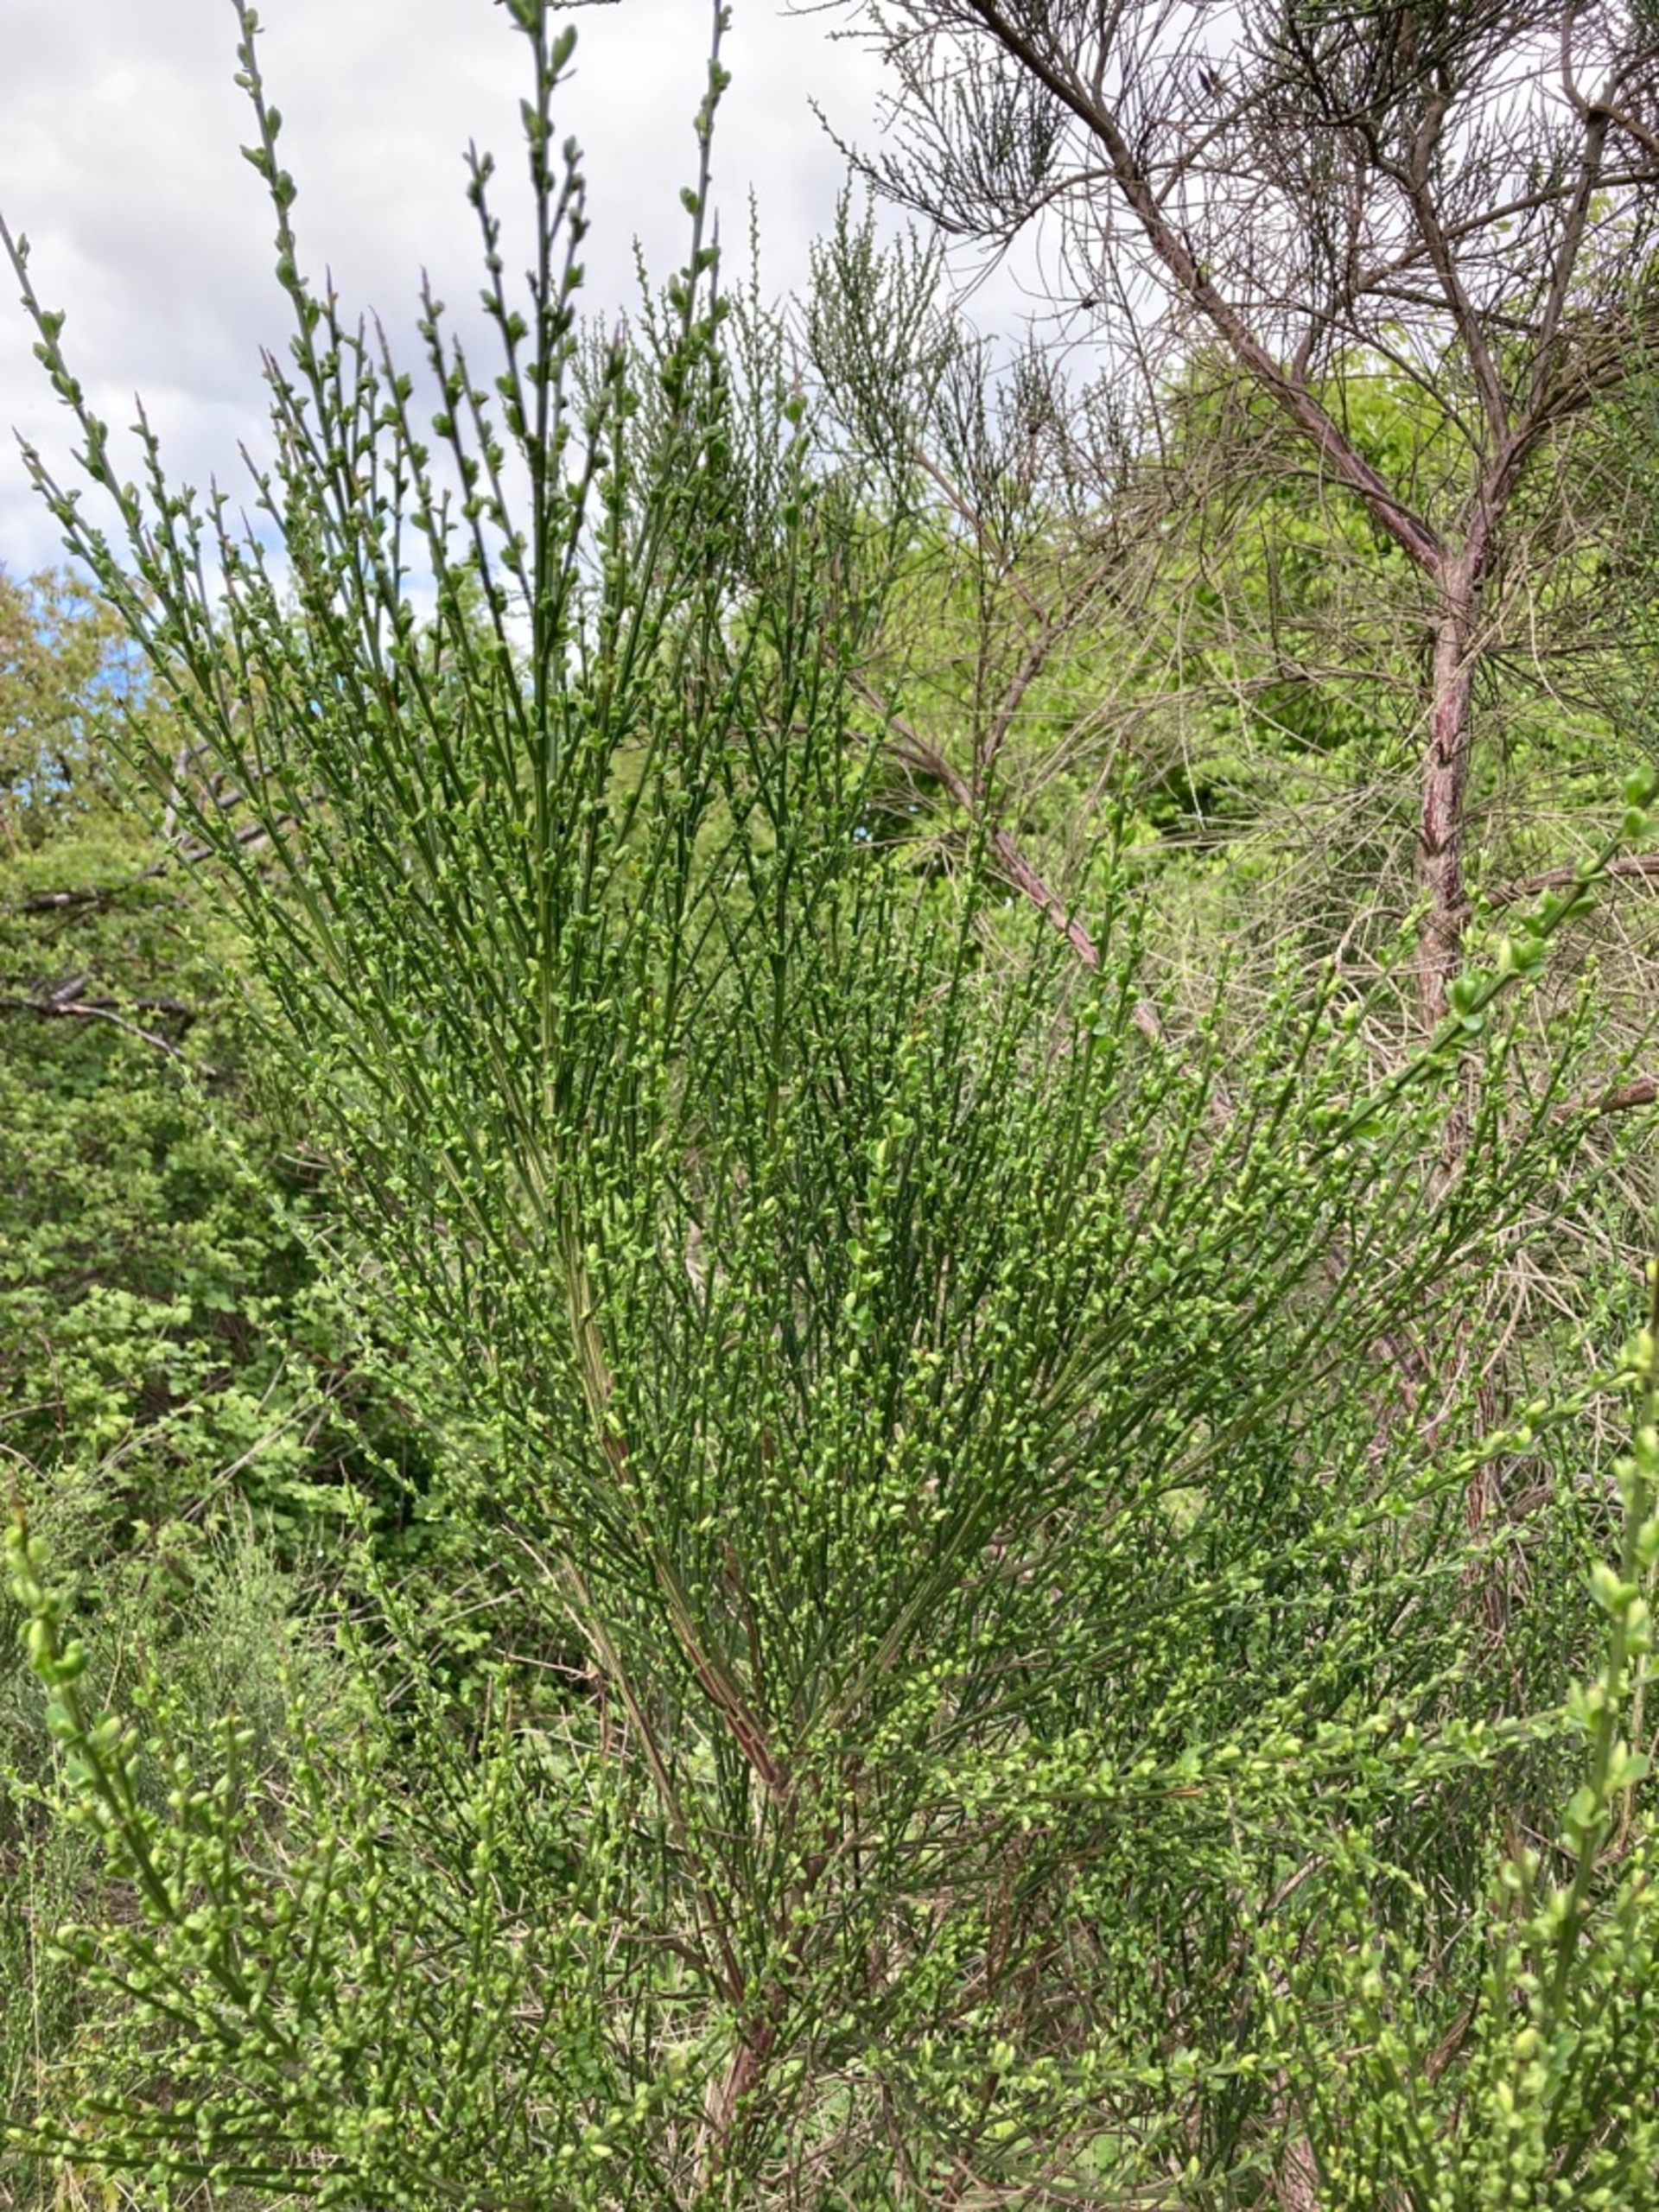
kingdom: Plantae
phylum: Tracheophyta
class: Magnoliopsida
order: Fabales
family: Fabaceae
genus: Cytisus
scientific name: Cytisus scoparius
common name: Almindelig gyvel
